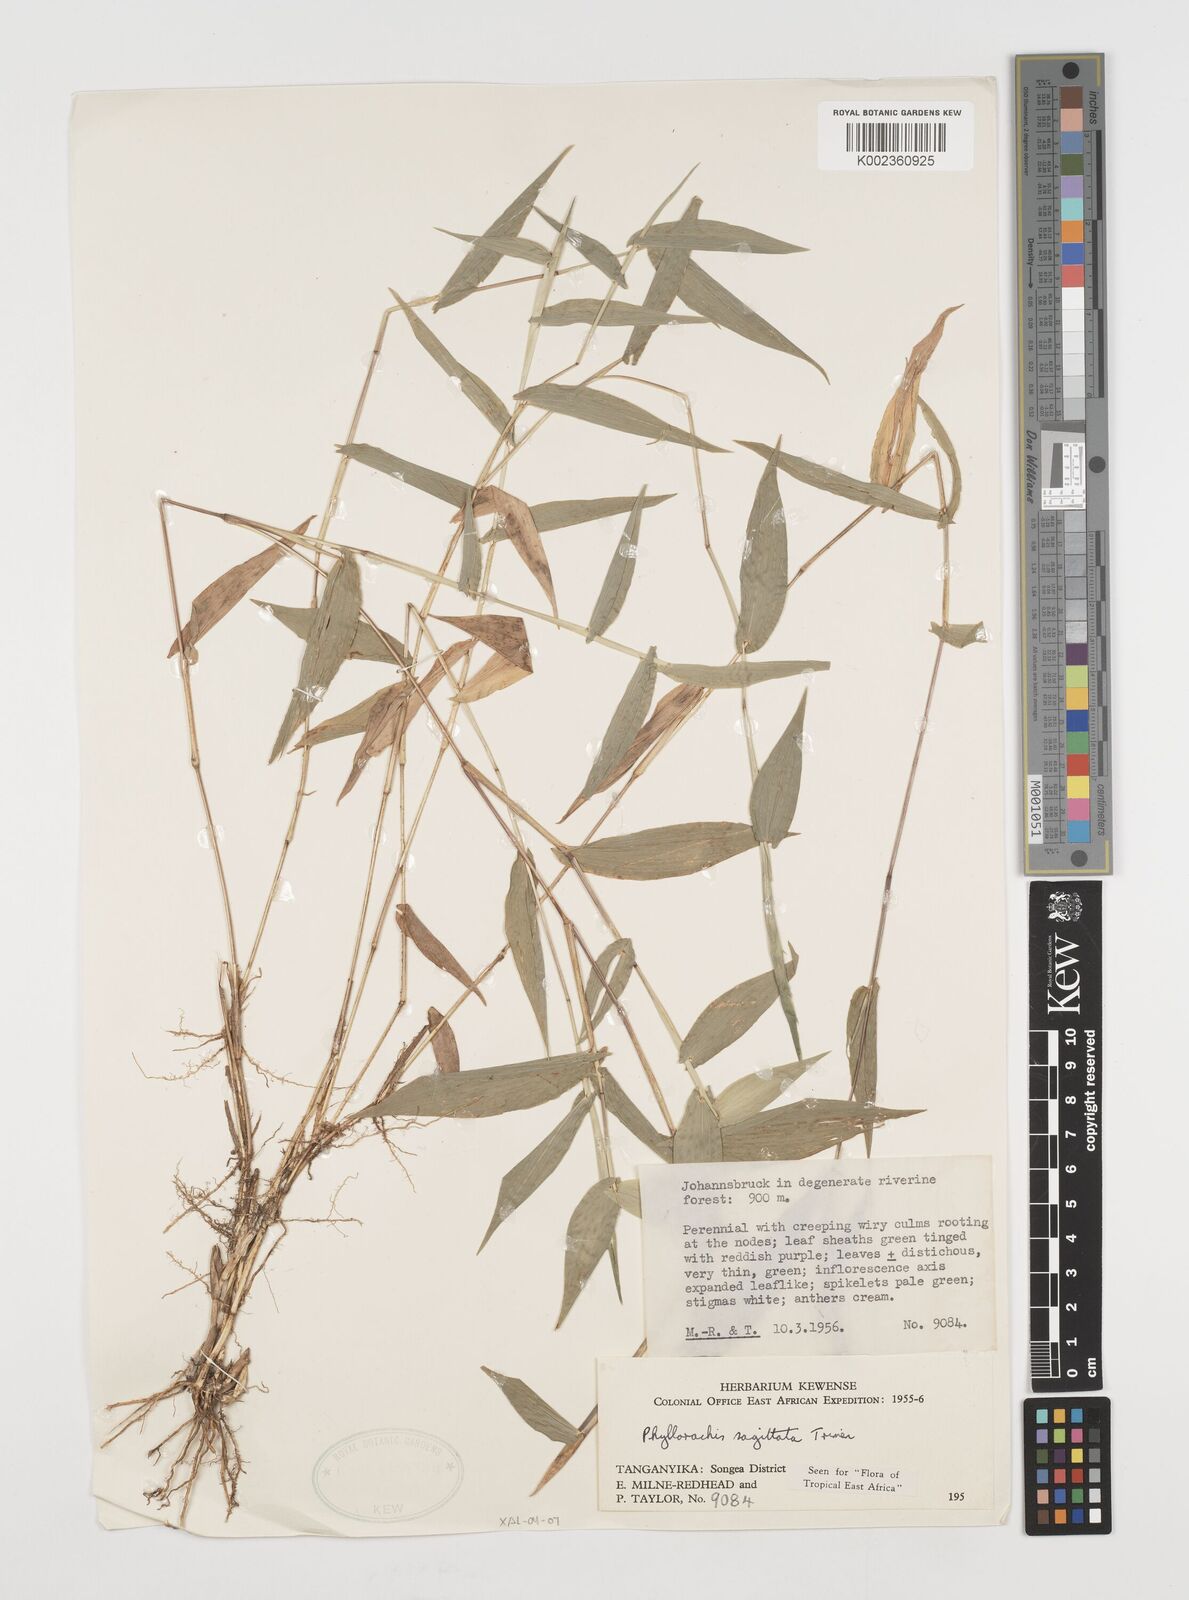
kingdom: Plantae
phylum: Tracheophyta
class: Liliopsida
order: Poales
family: Poaceae
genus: Phyllorachis
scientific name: Phyllorachis sagittata
